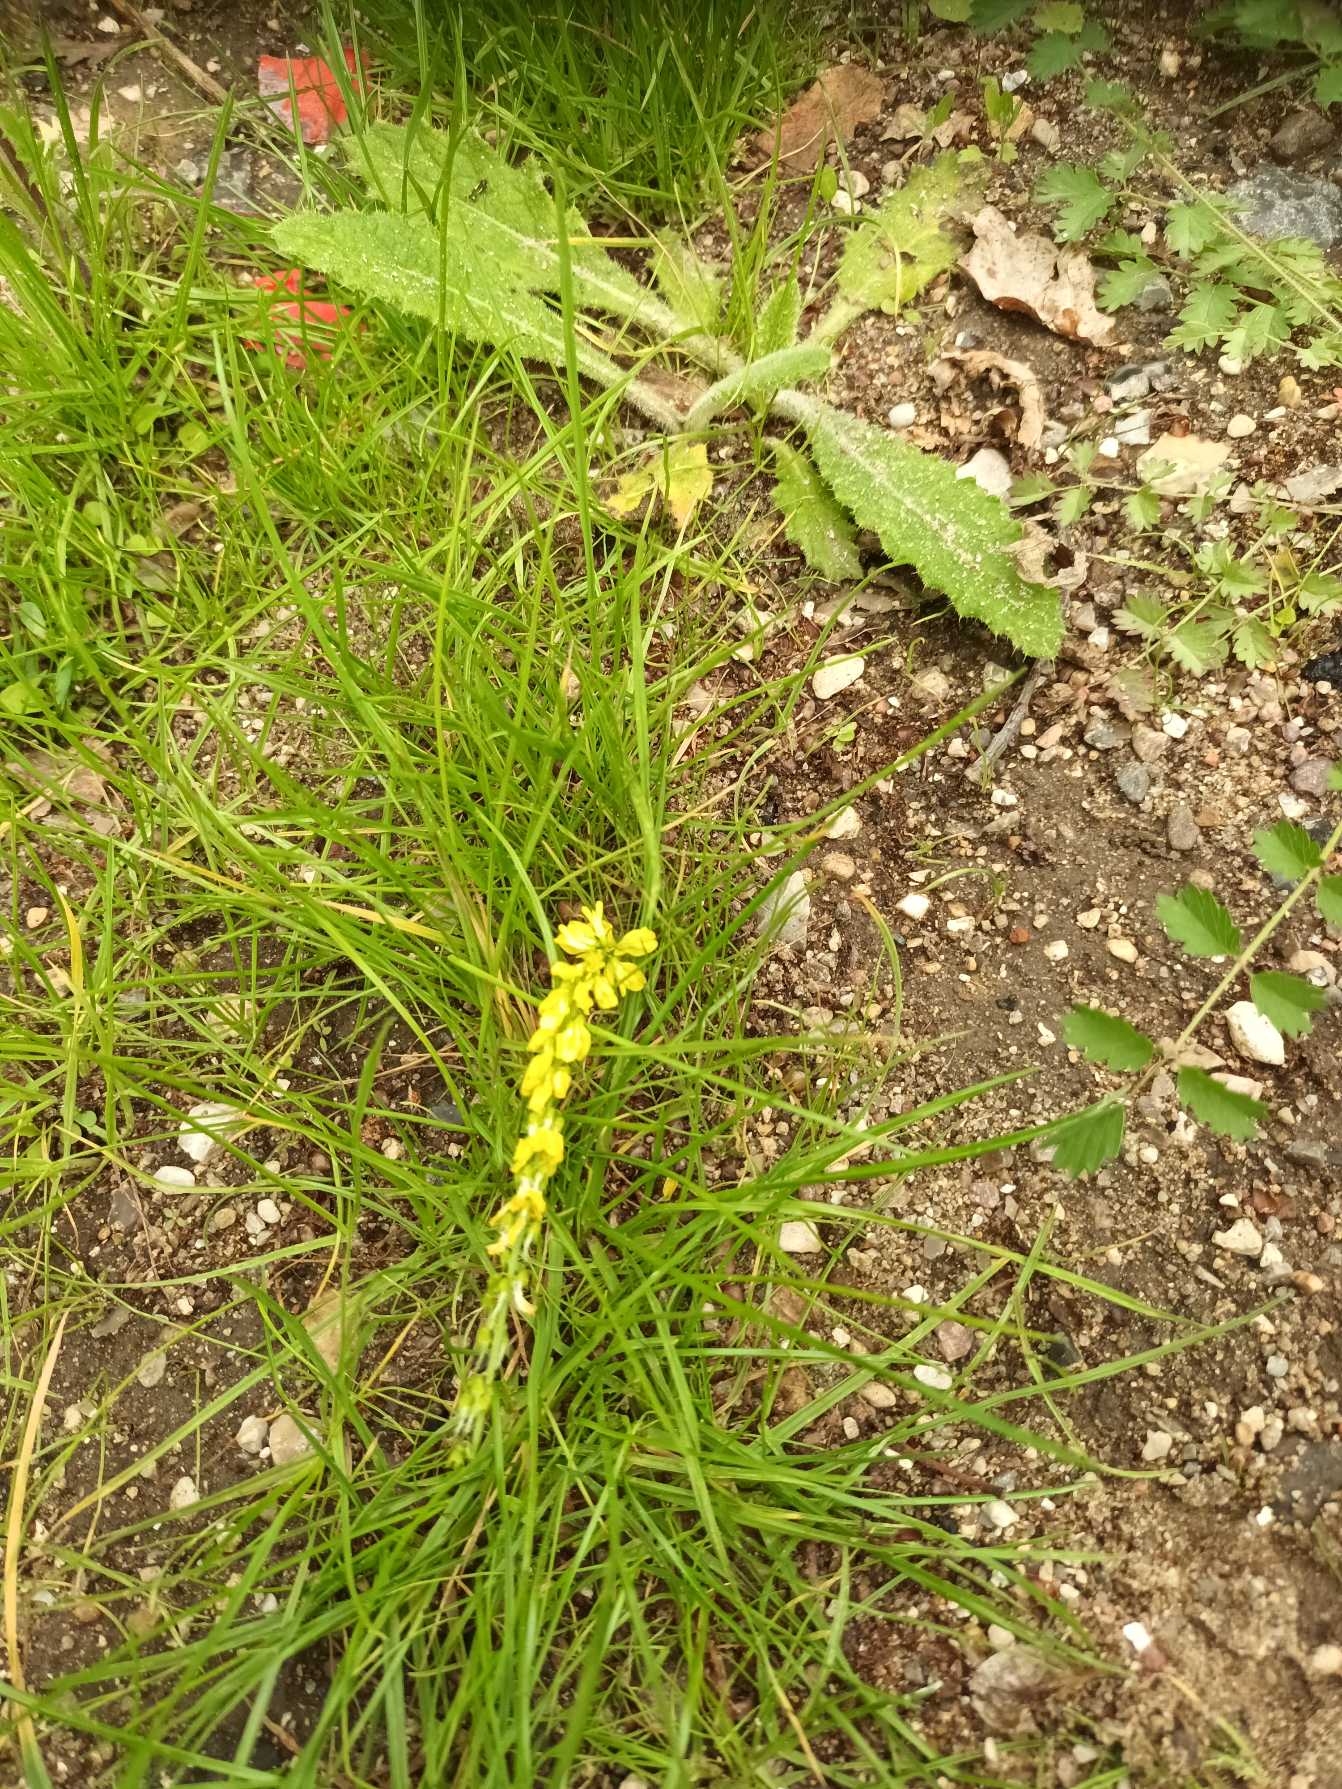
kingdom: Plantae
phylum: Tracheophyta
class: Magnoliopsida
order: Fabales
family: Fabaceae
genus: Melilotus
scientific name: Melilotus officinalis
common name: Mark-stenkløver
